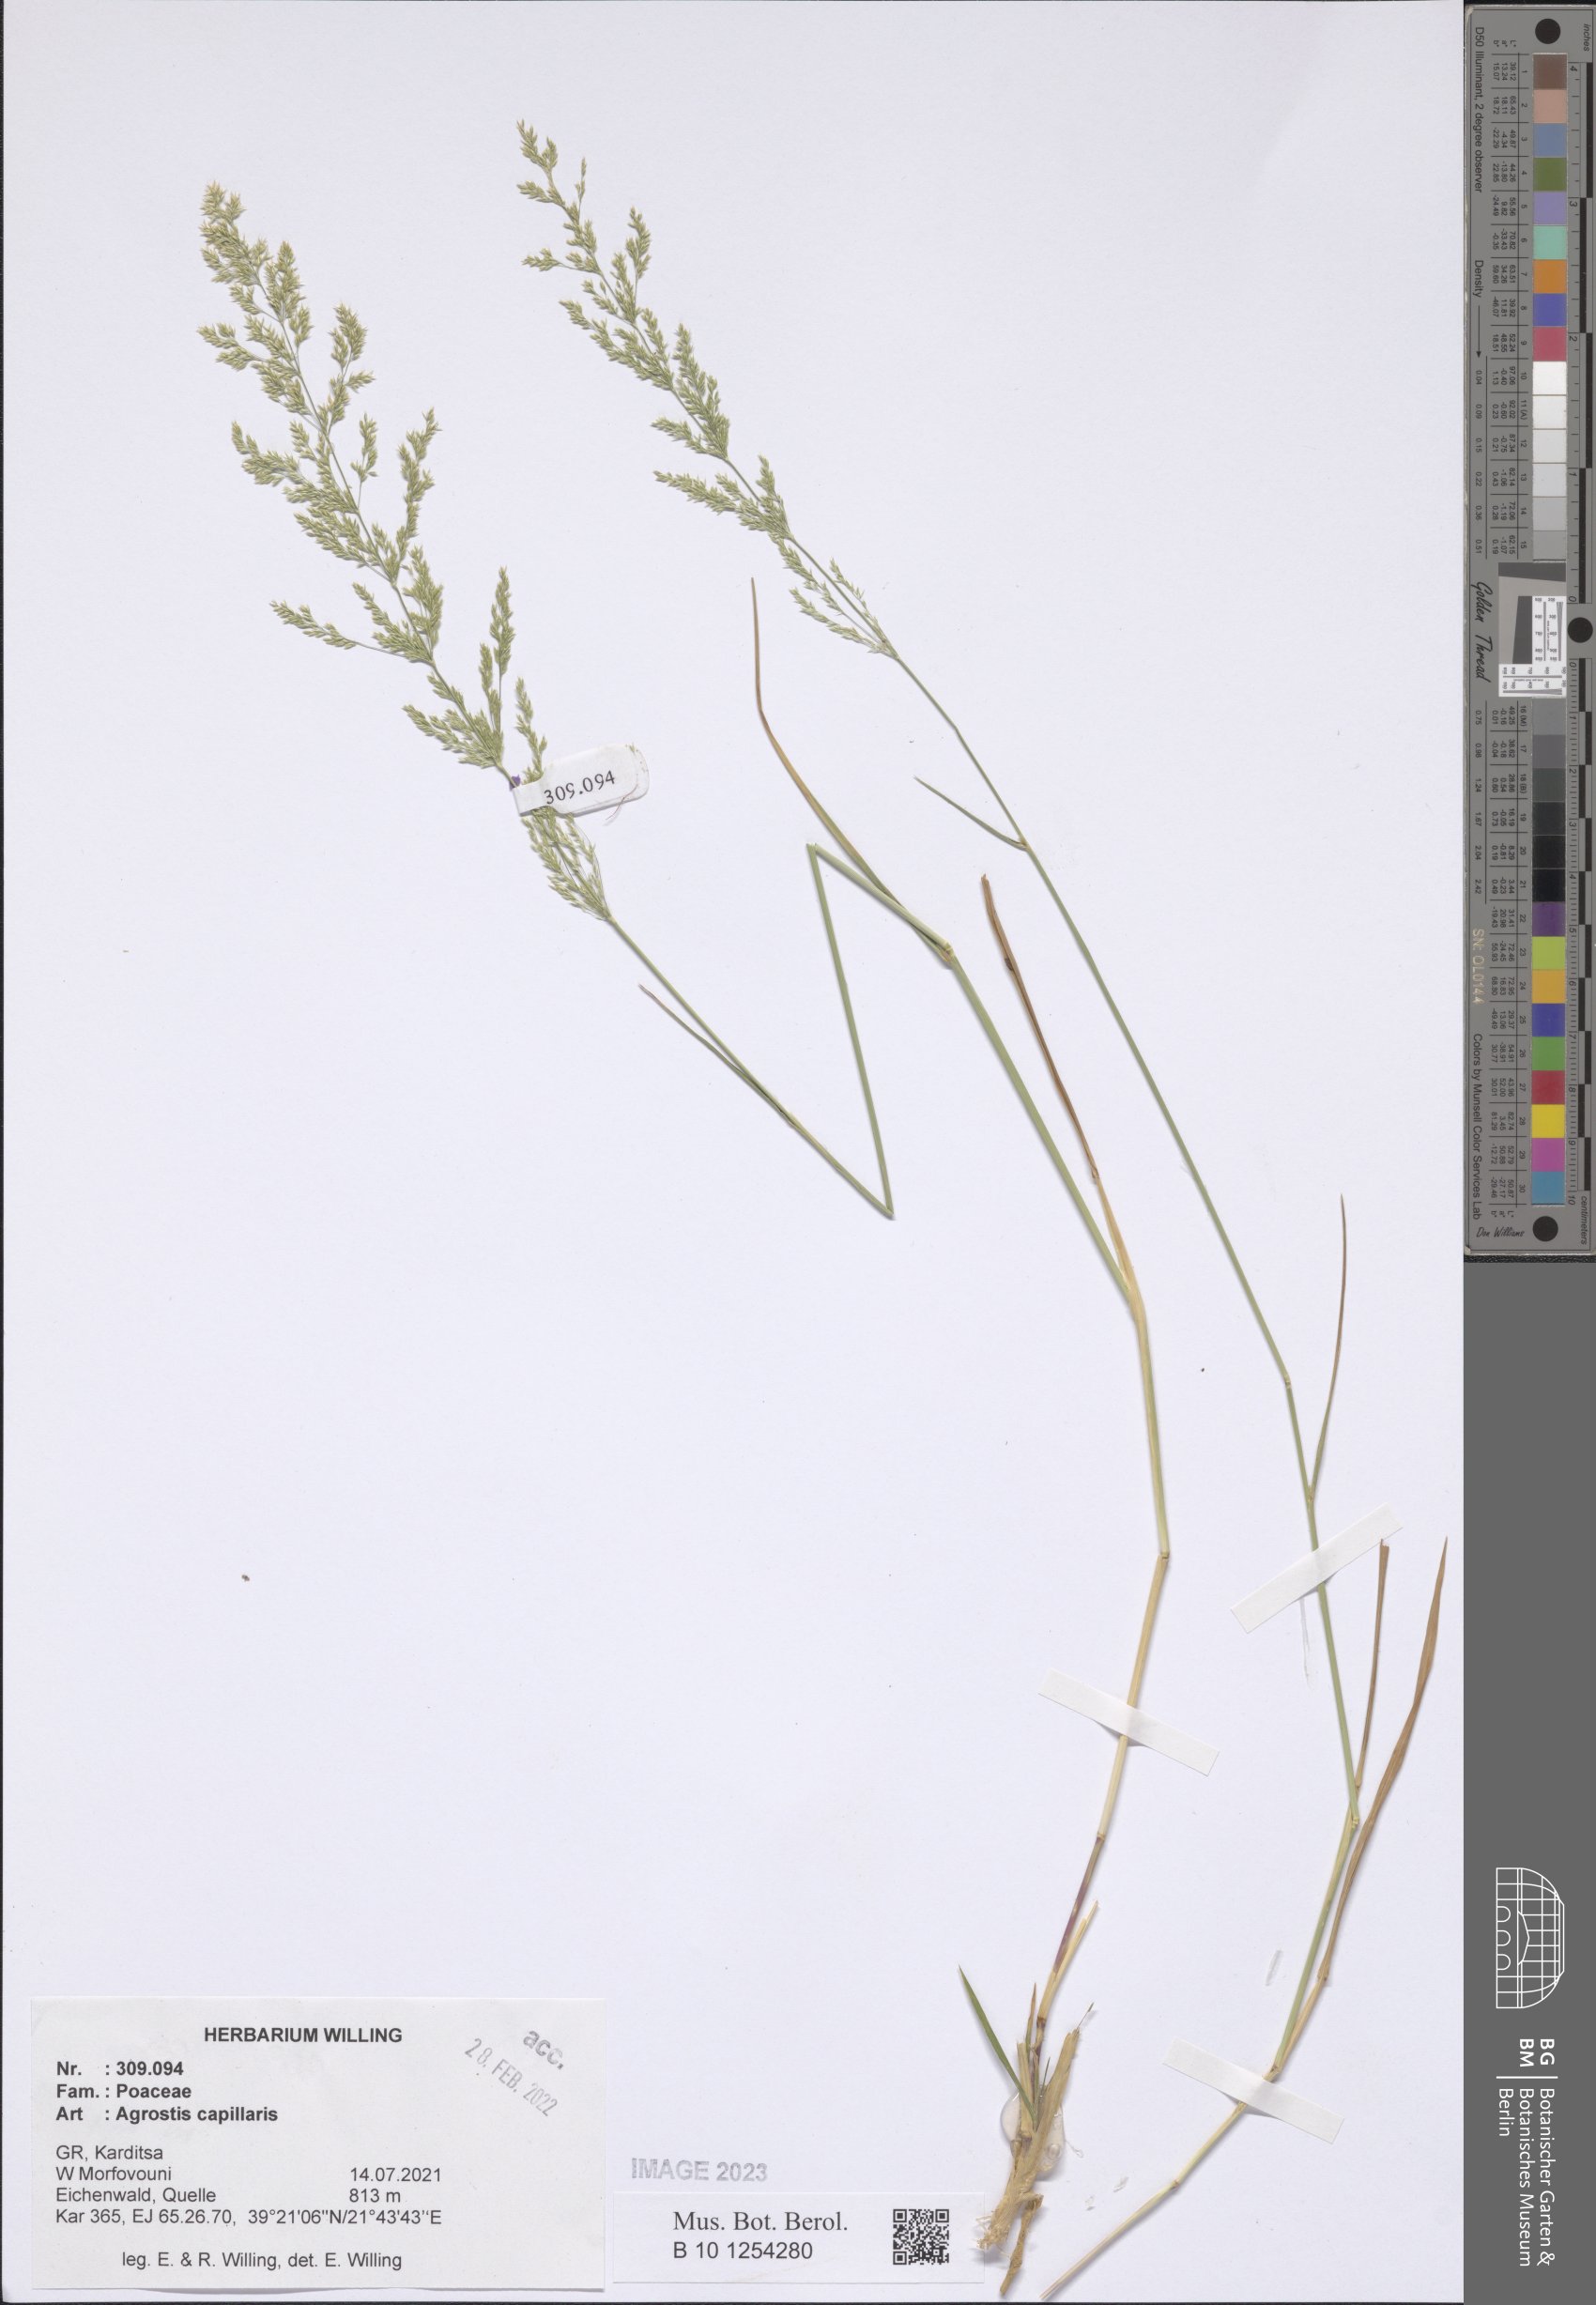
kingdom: Plantae
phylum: Tracheophyta
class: Liliopsida
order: Poales
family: Poaceae
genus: Agrostis
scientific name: Agrostis capillaris
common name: Colonial bentgrass
